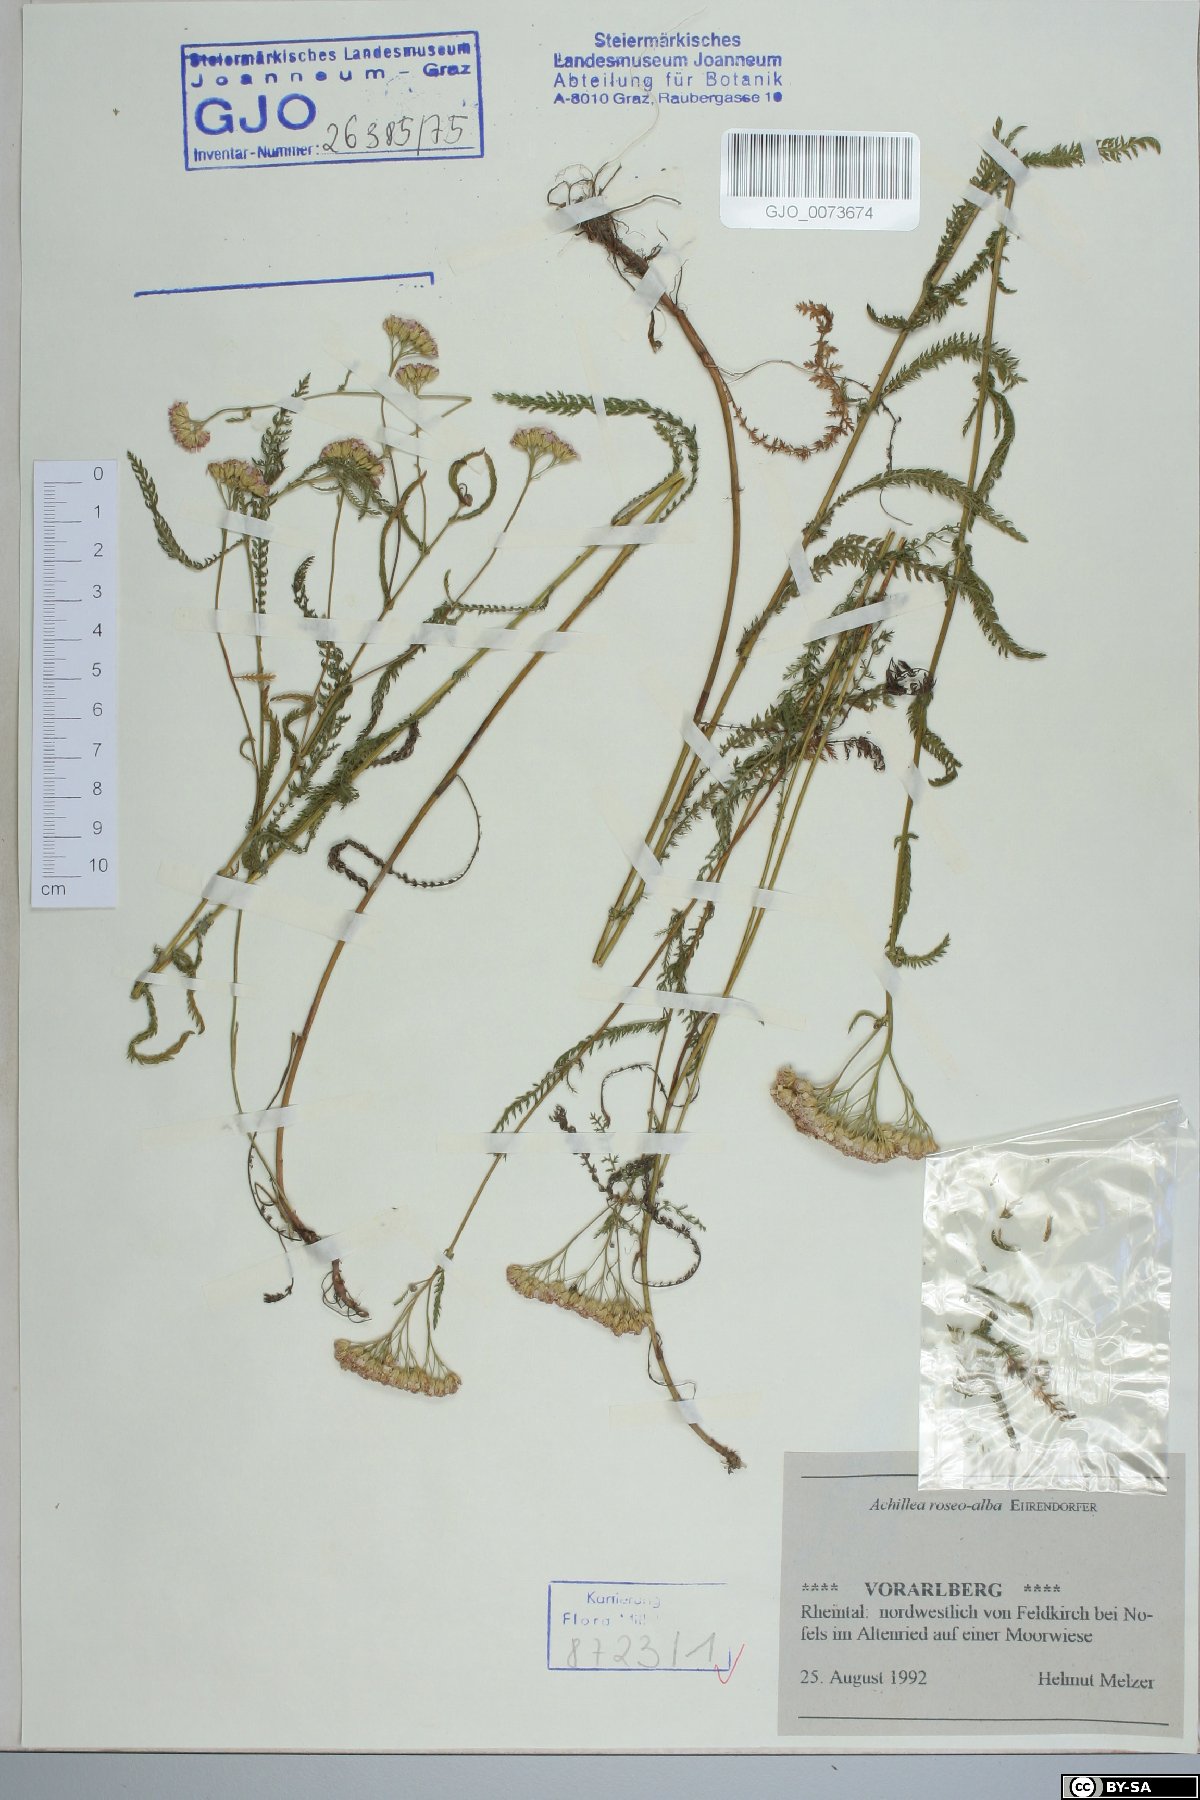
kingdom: Plantae
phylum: Tracheophyta
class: Magnoliopsida
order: Asterales
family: Asteraceae
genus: Achillea
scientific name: Achillea roseoalba
